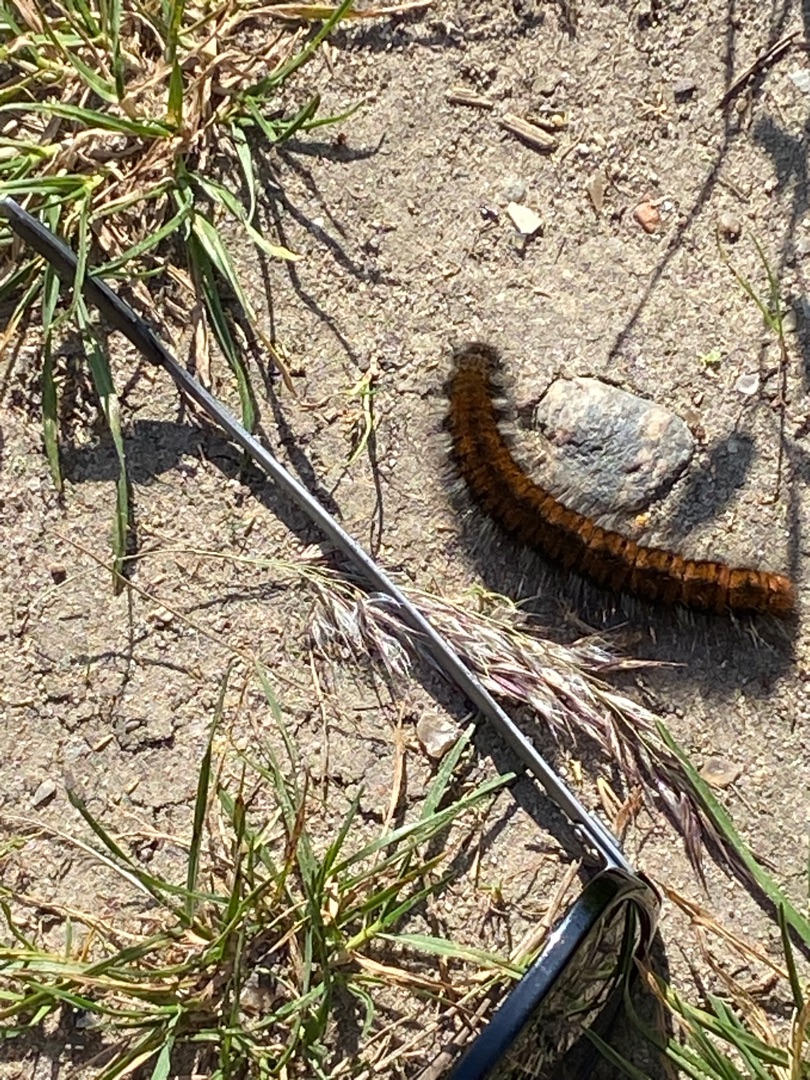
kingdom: Animalia
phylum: Arthropoda
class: Insecta
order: Lepidoptera
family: Lasiocampidae
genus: Macrothylacia
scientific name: Macrothylacia rubi
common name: Brombærspinder
